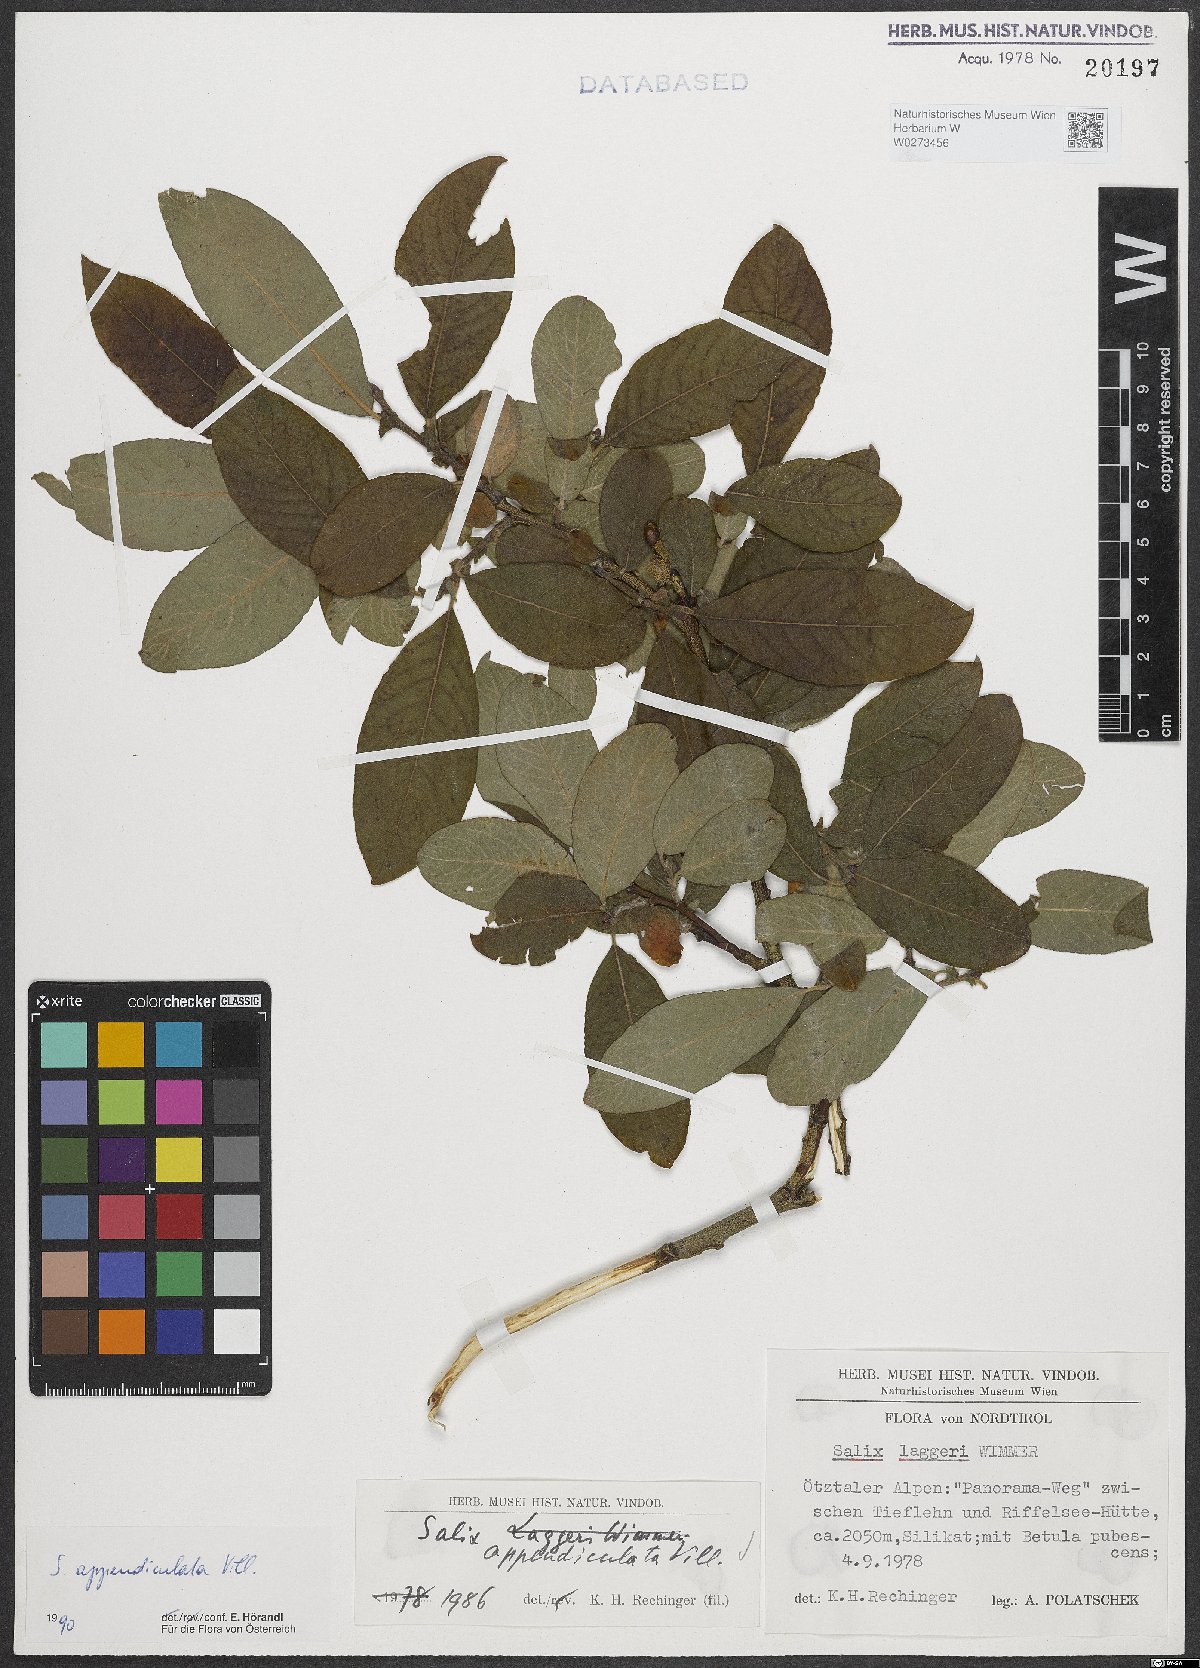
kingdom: Plantae
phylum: Tracheophyta
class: Magnoliopsida
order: Malpighiales
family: Salicaceae
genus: Salix
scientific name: Salix appendiculata
